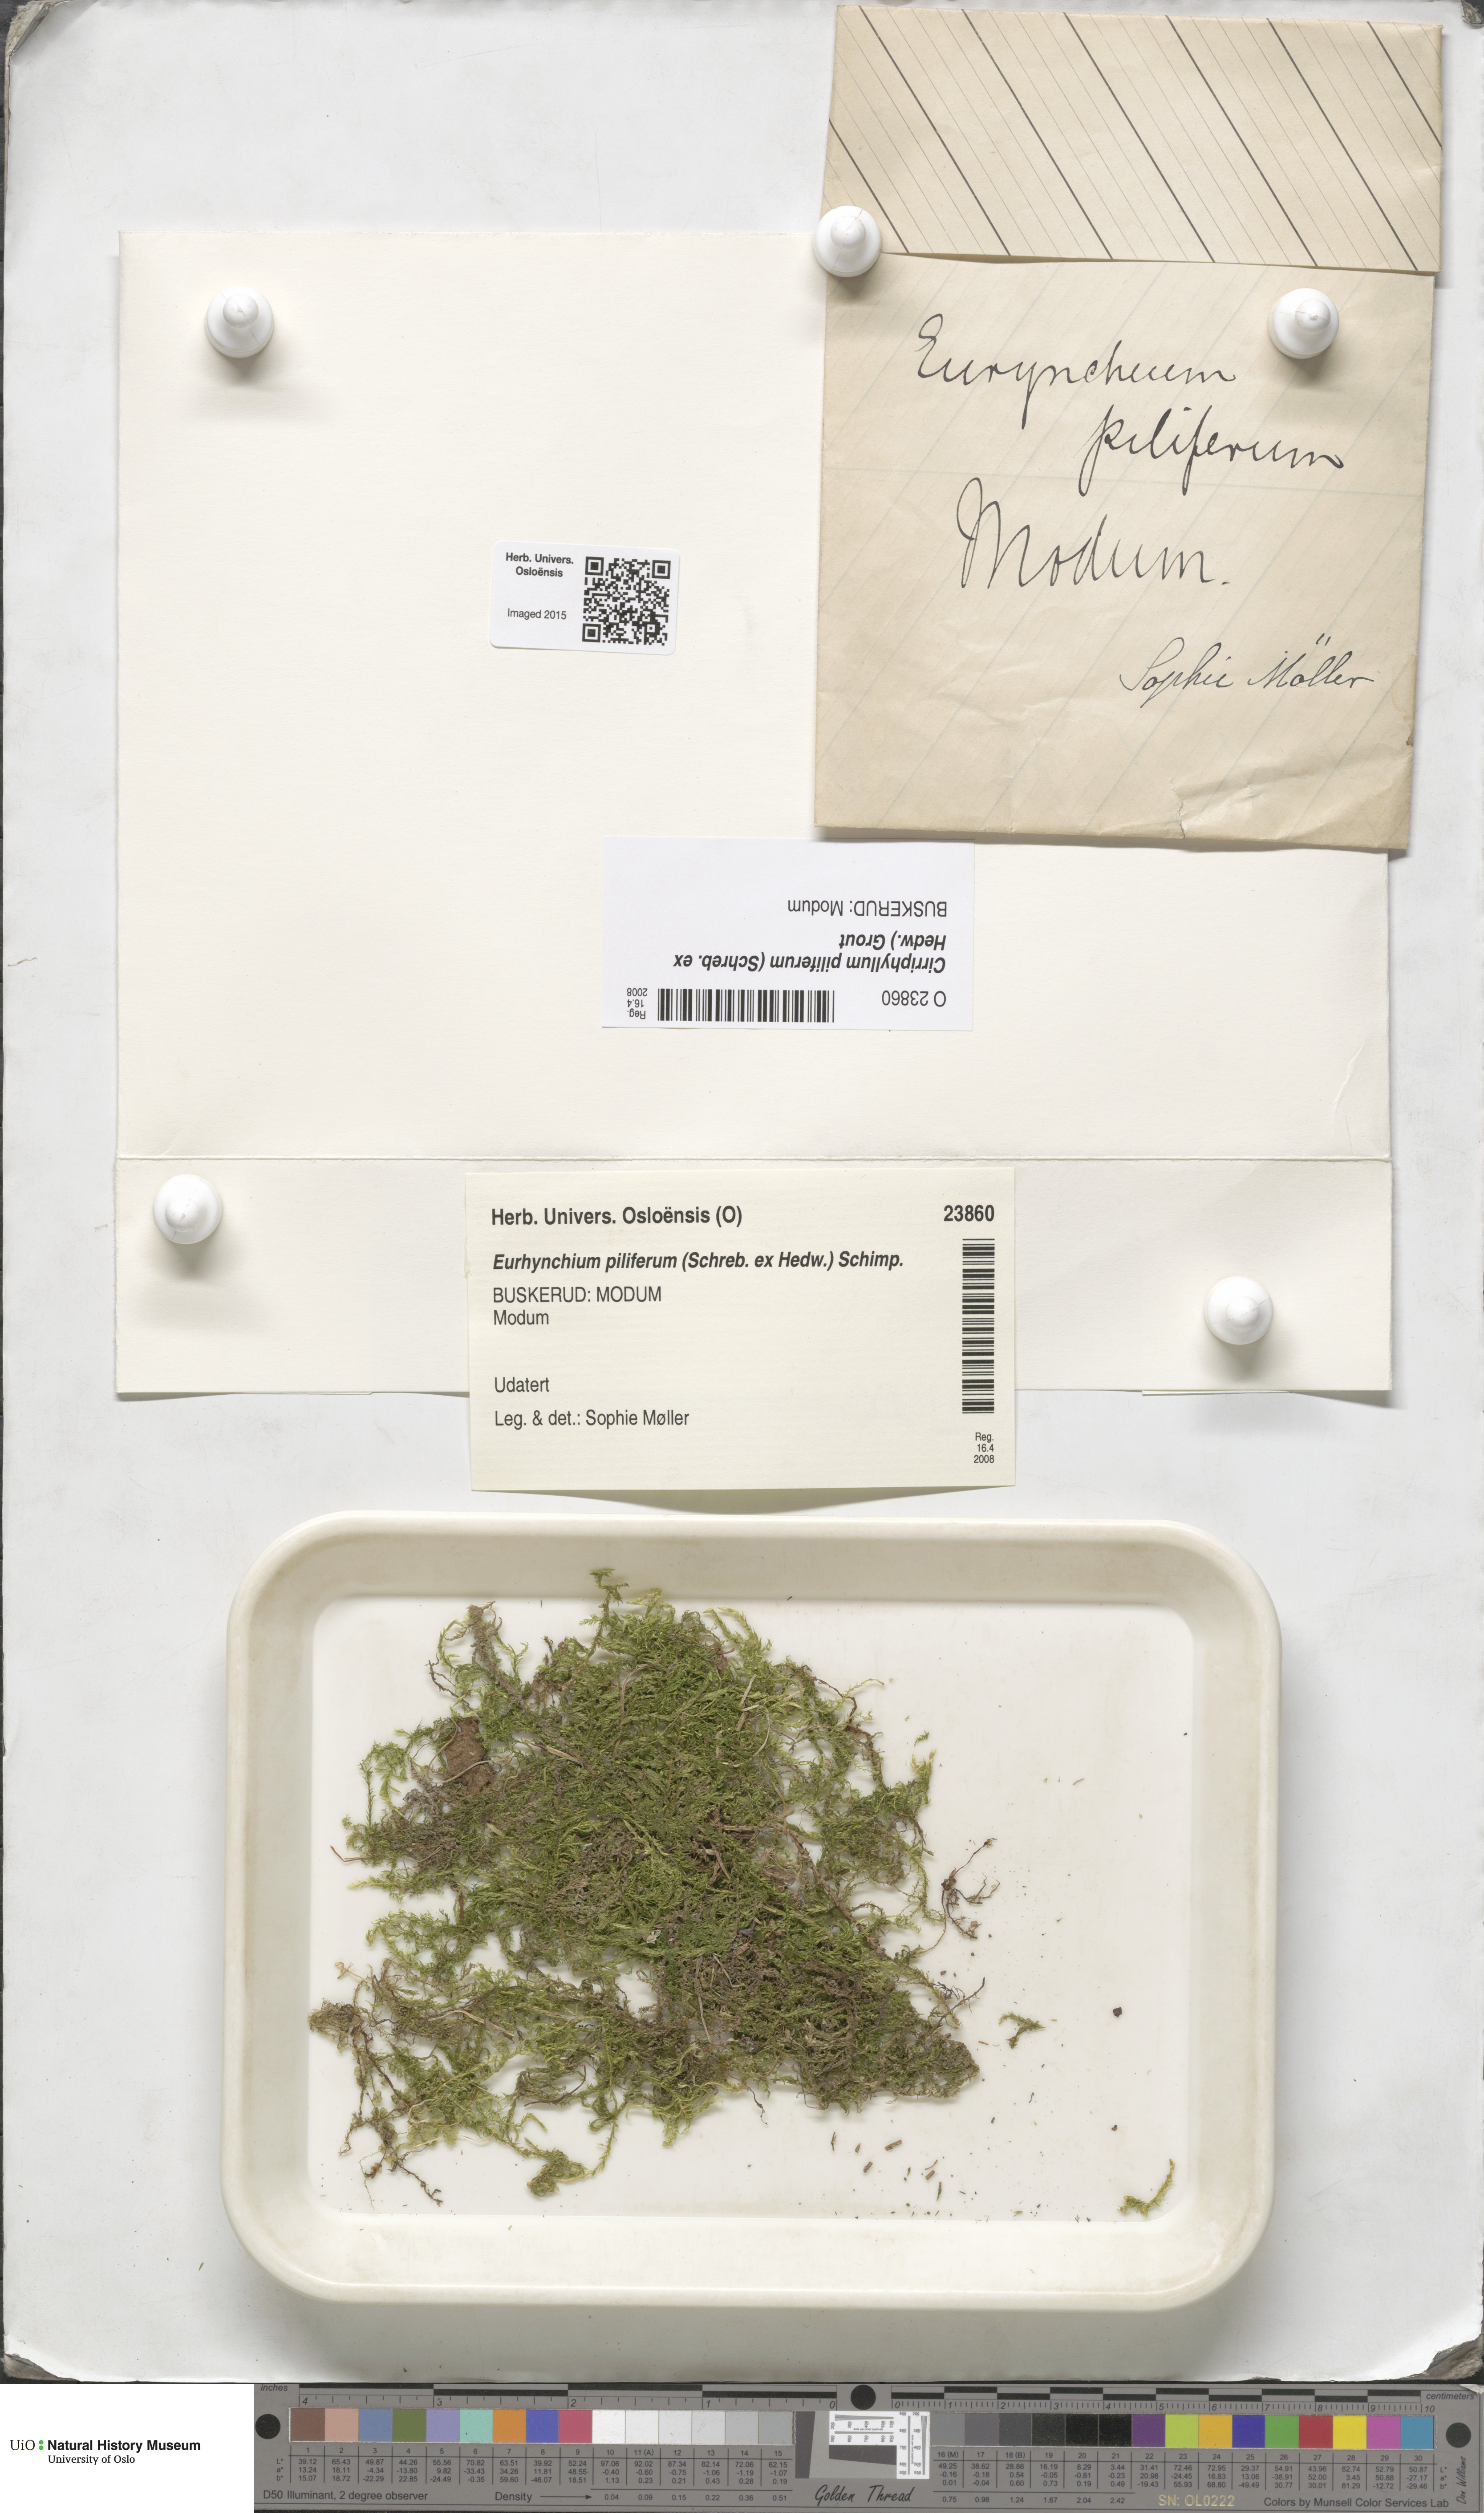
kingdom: Plantae
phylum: Bryophyta
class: Bryopsida
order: Hypnales
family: Brachytheciaceae
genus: Cirriphyllum
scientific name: Cirriphyllum piliferum
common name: Hair-pointed moss
